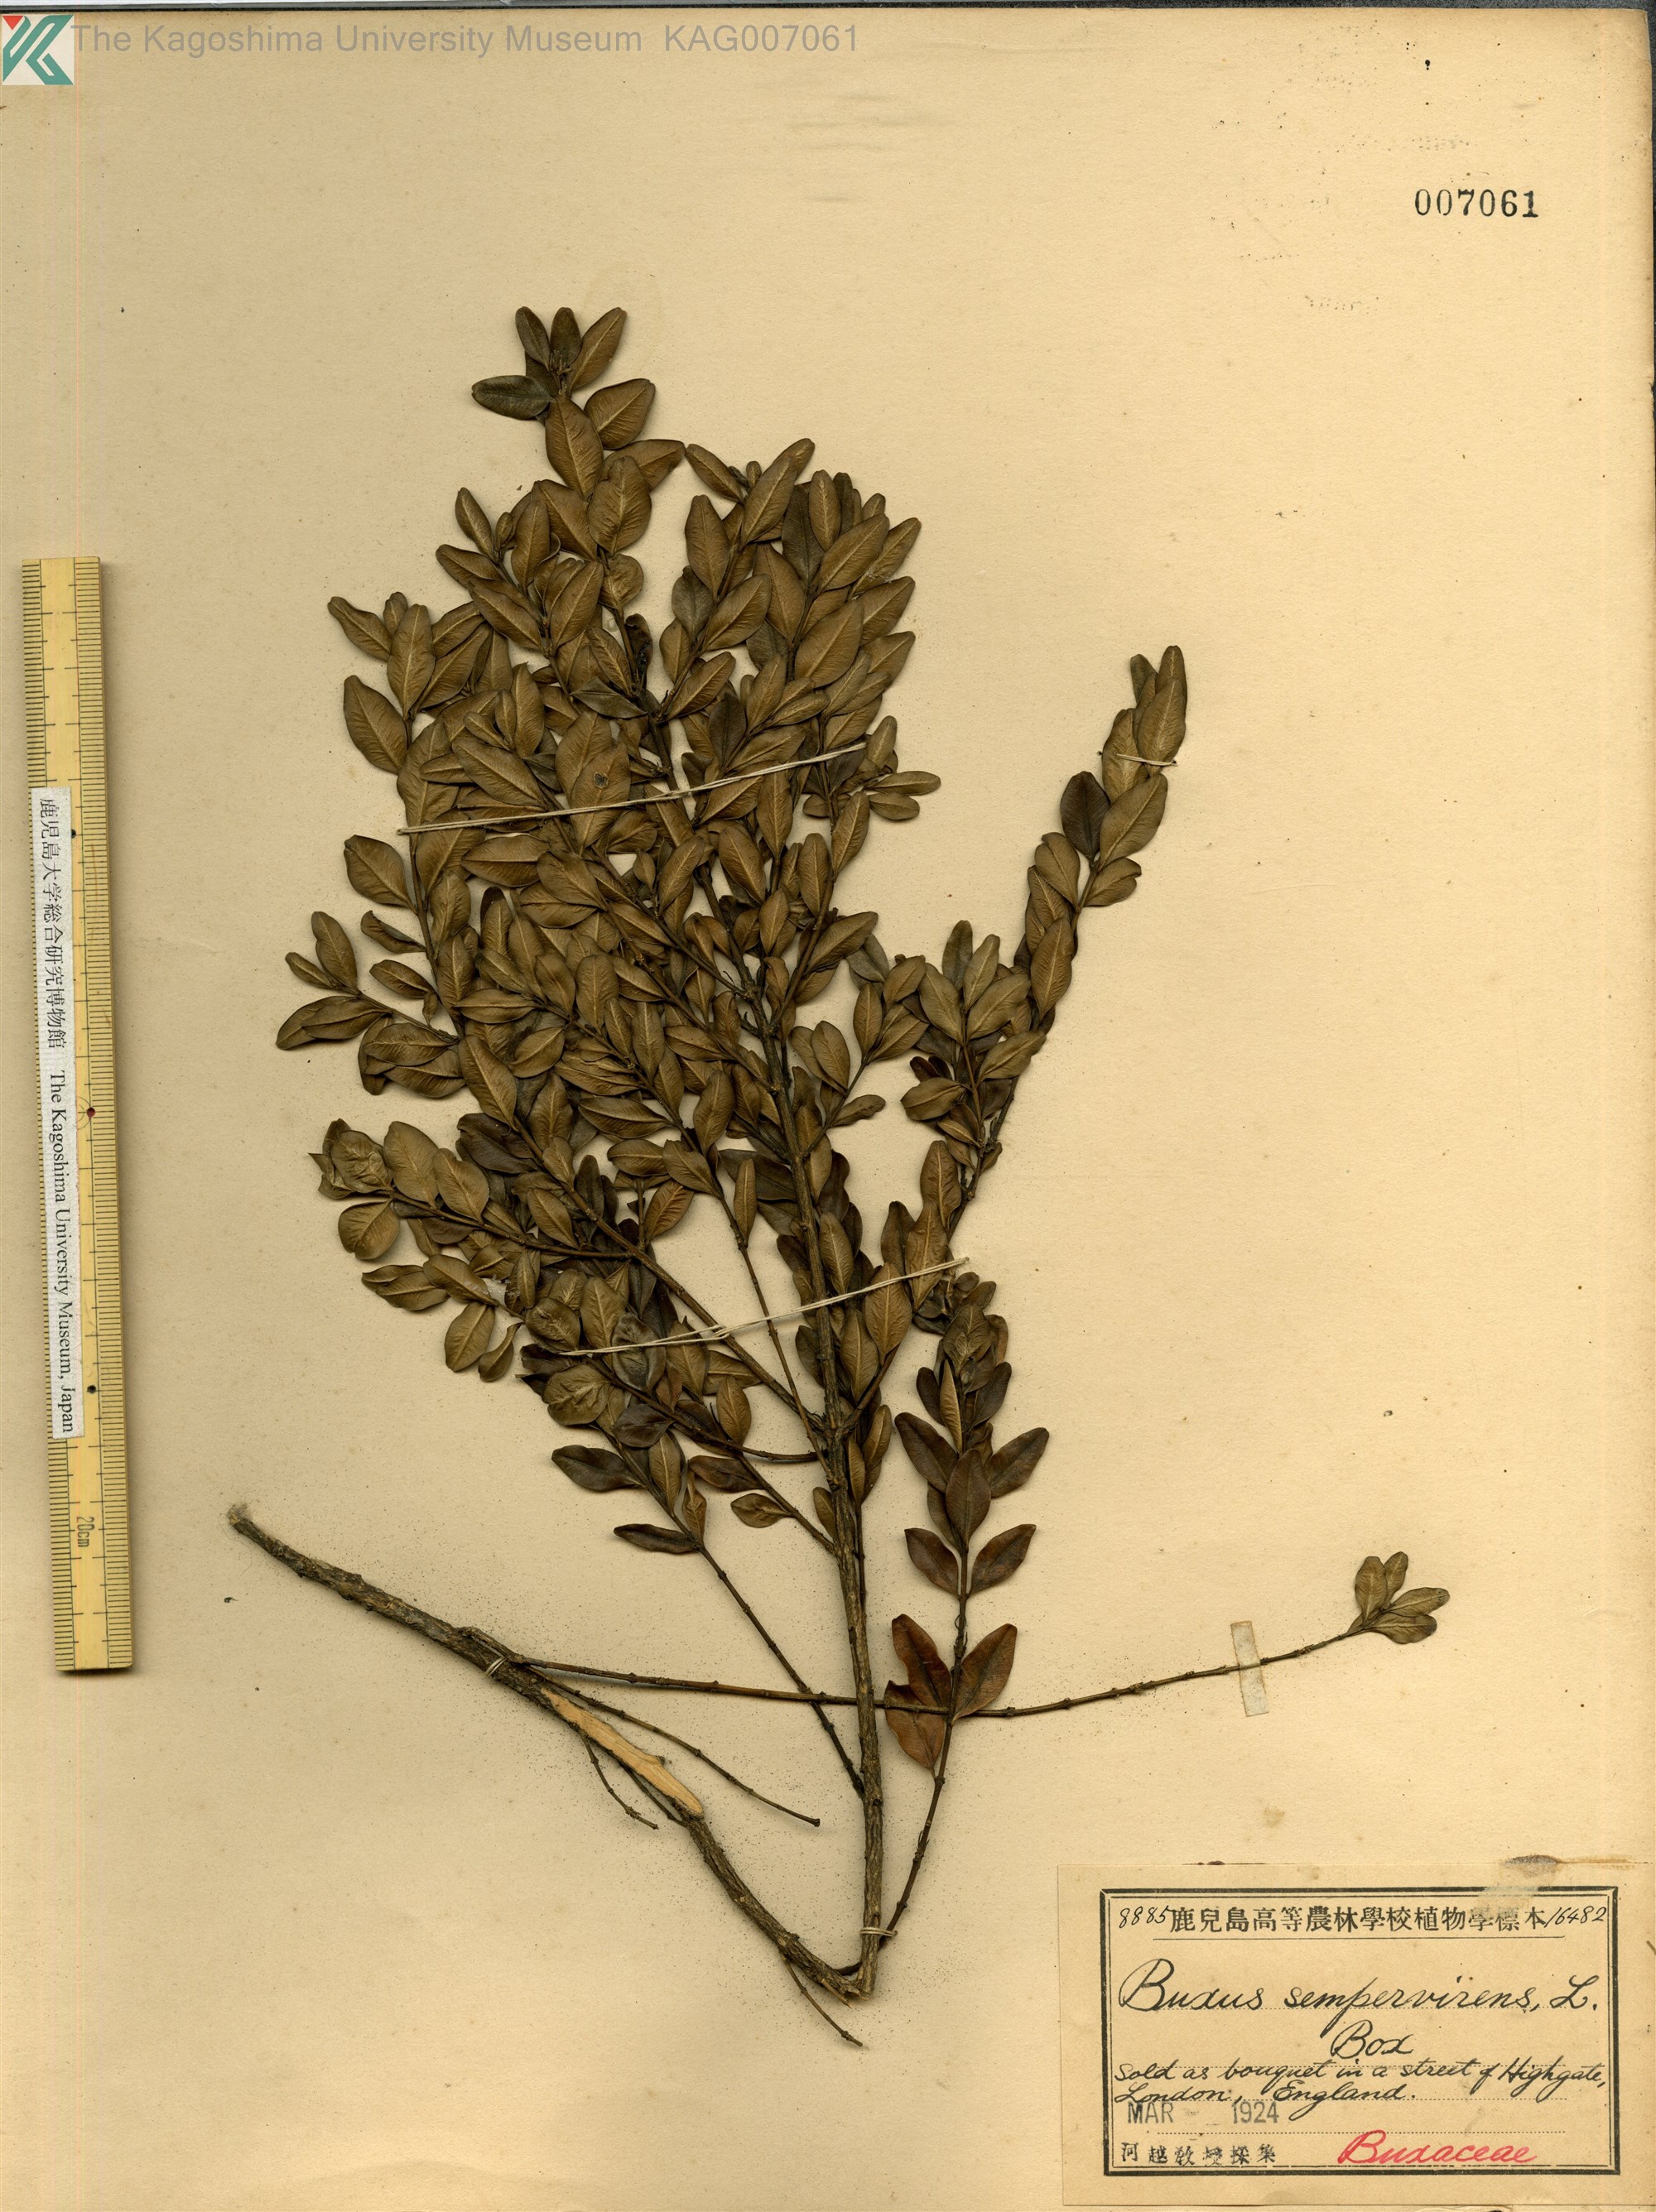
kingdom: Plantae
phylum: Tracheophyta
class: Magnoliopsida
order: Buxales
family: Buxaceae
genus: Buxus
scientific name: Buxus sempervirens
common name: Box
